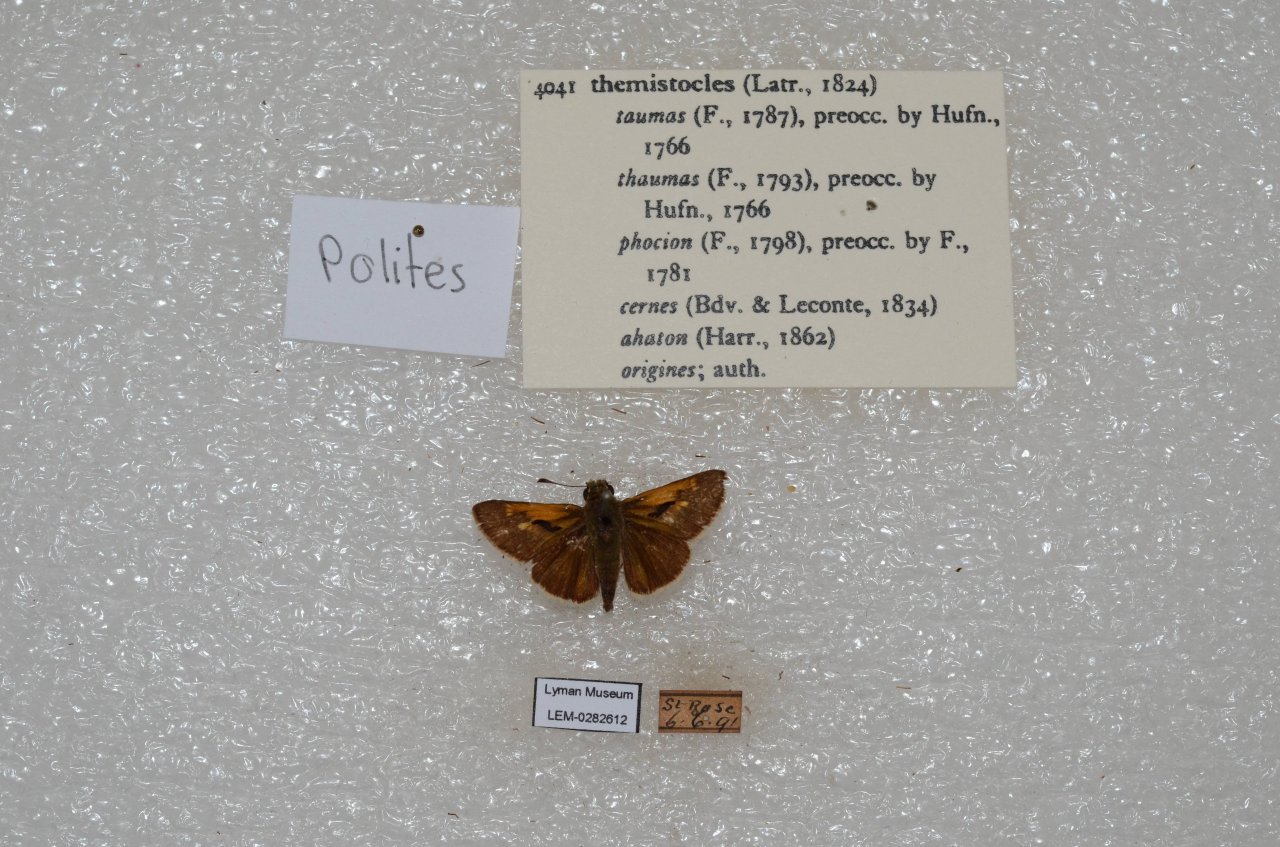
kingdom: Animalia
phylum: Arthropoda
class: Insecta
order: Lepidoptera
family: Hesperiidae
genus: Polites
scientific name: Polites themistocles
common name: Tawny-edged Skipper
